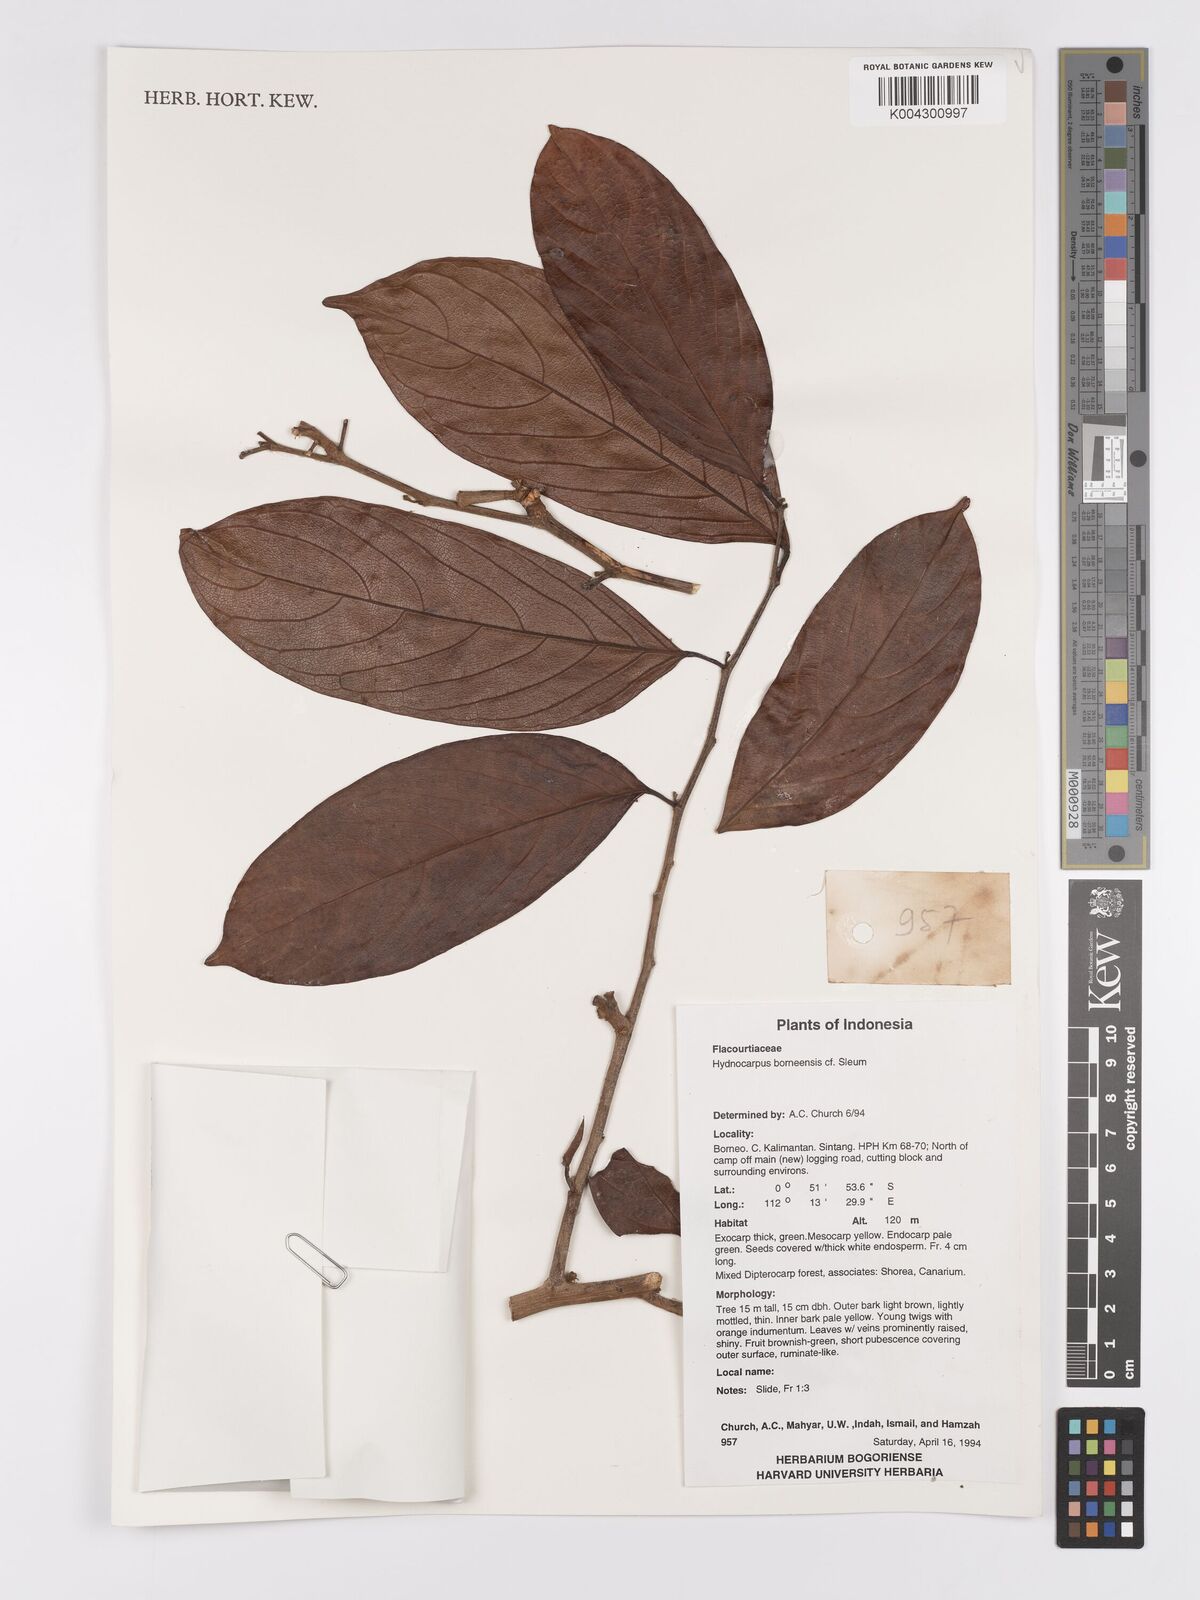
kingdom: Plantae
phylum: Tracheophyta
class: Magnoliopsida
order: Malpighiales
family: Achariaceae
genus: Hydnocarpus
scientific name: Hydnocarpus borneensis
